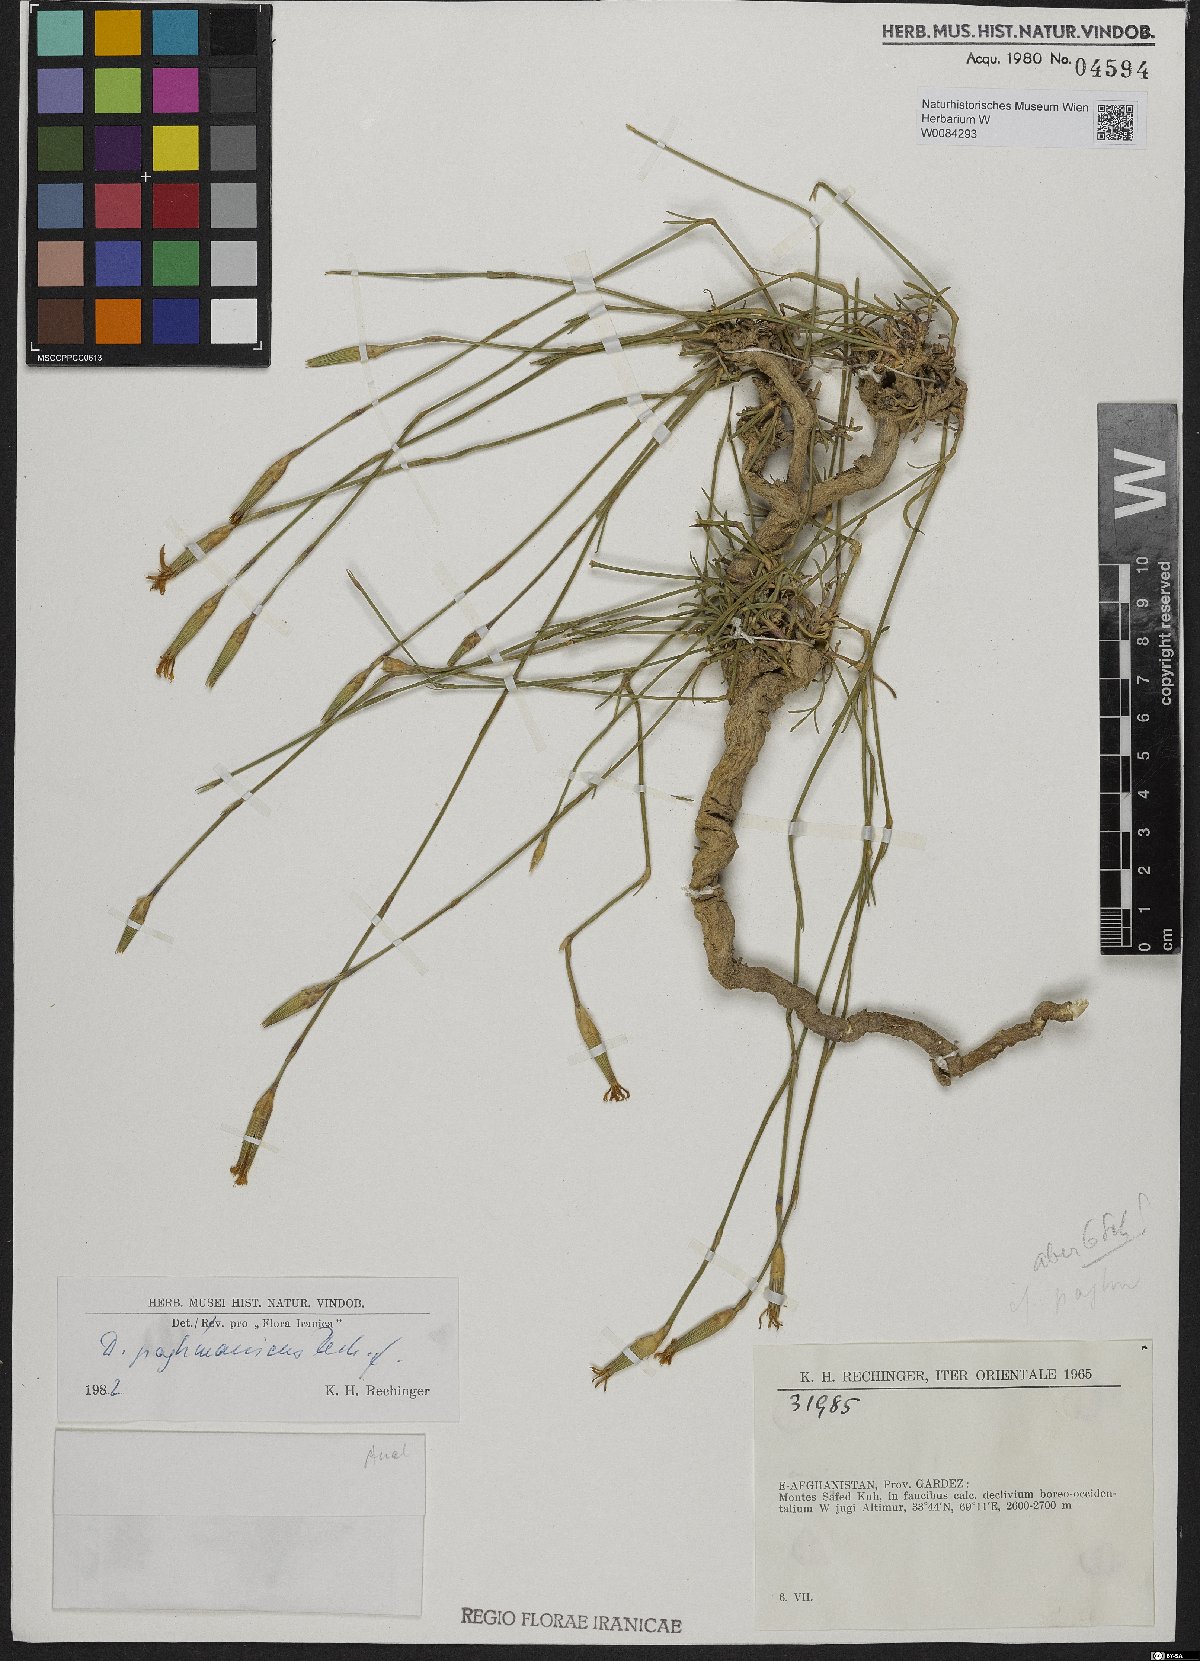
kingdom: Plantae
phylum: Tracheophyta
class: Magnoliopsida
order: Caryophyllales
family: Caryophyllaceae
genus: Dianthus
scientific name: Dianthus paghmanicus
